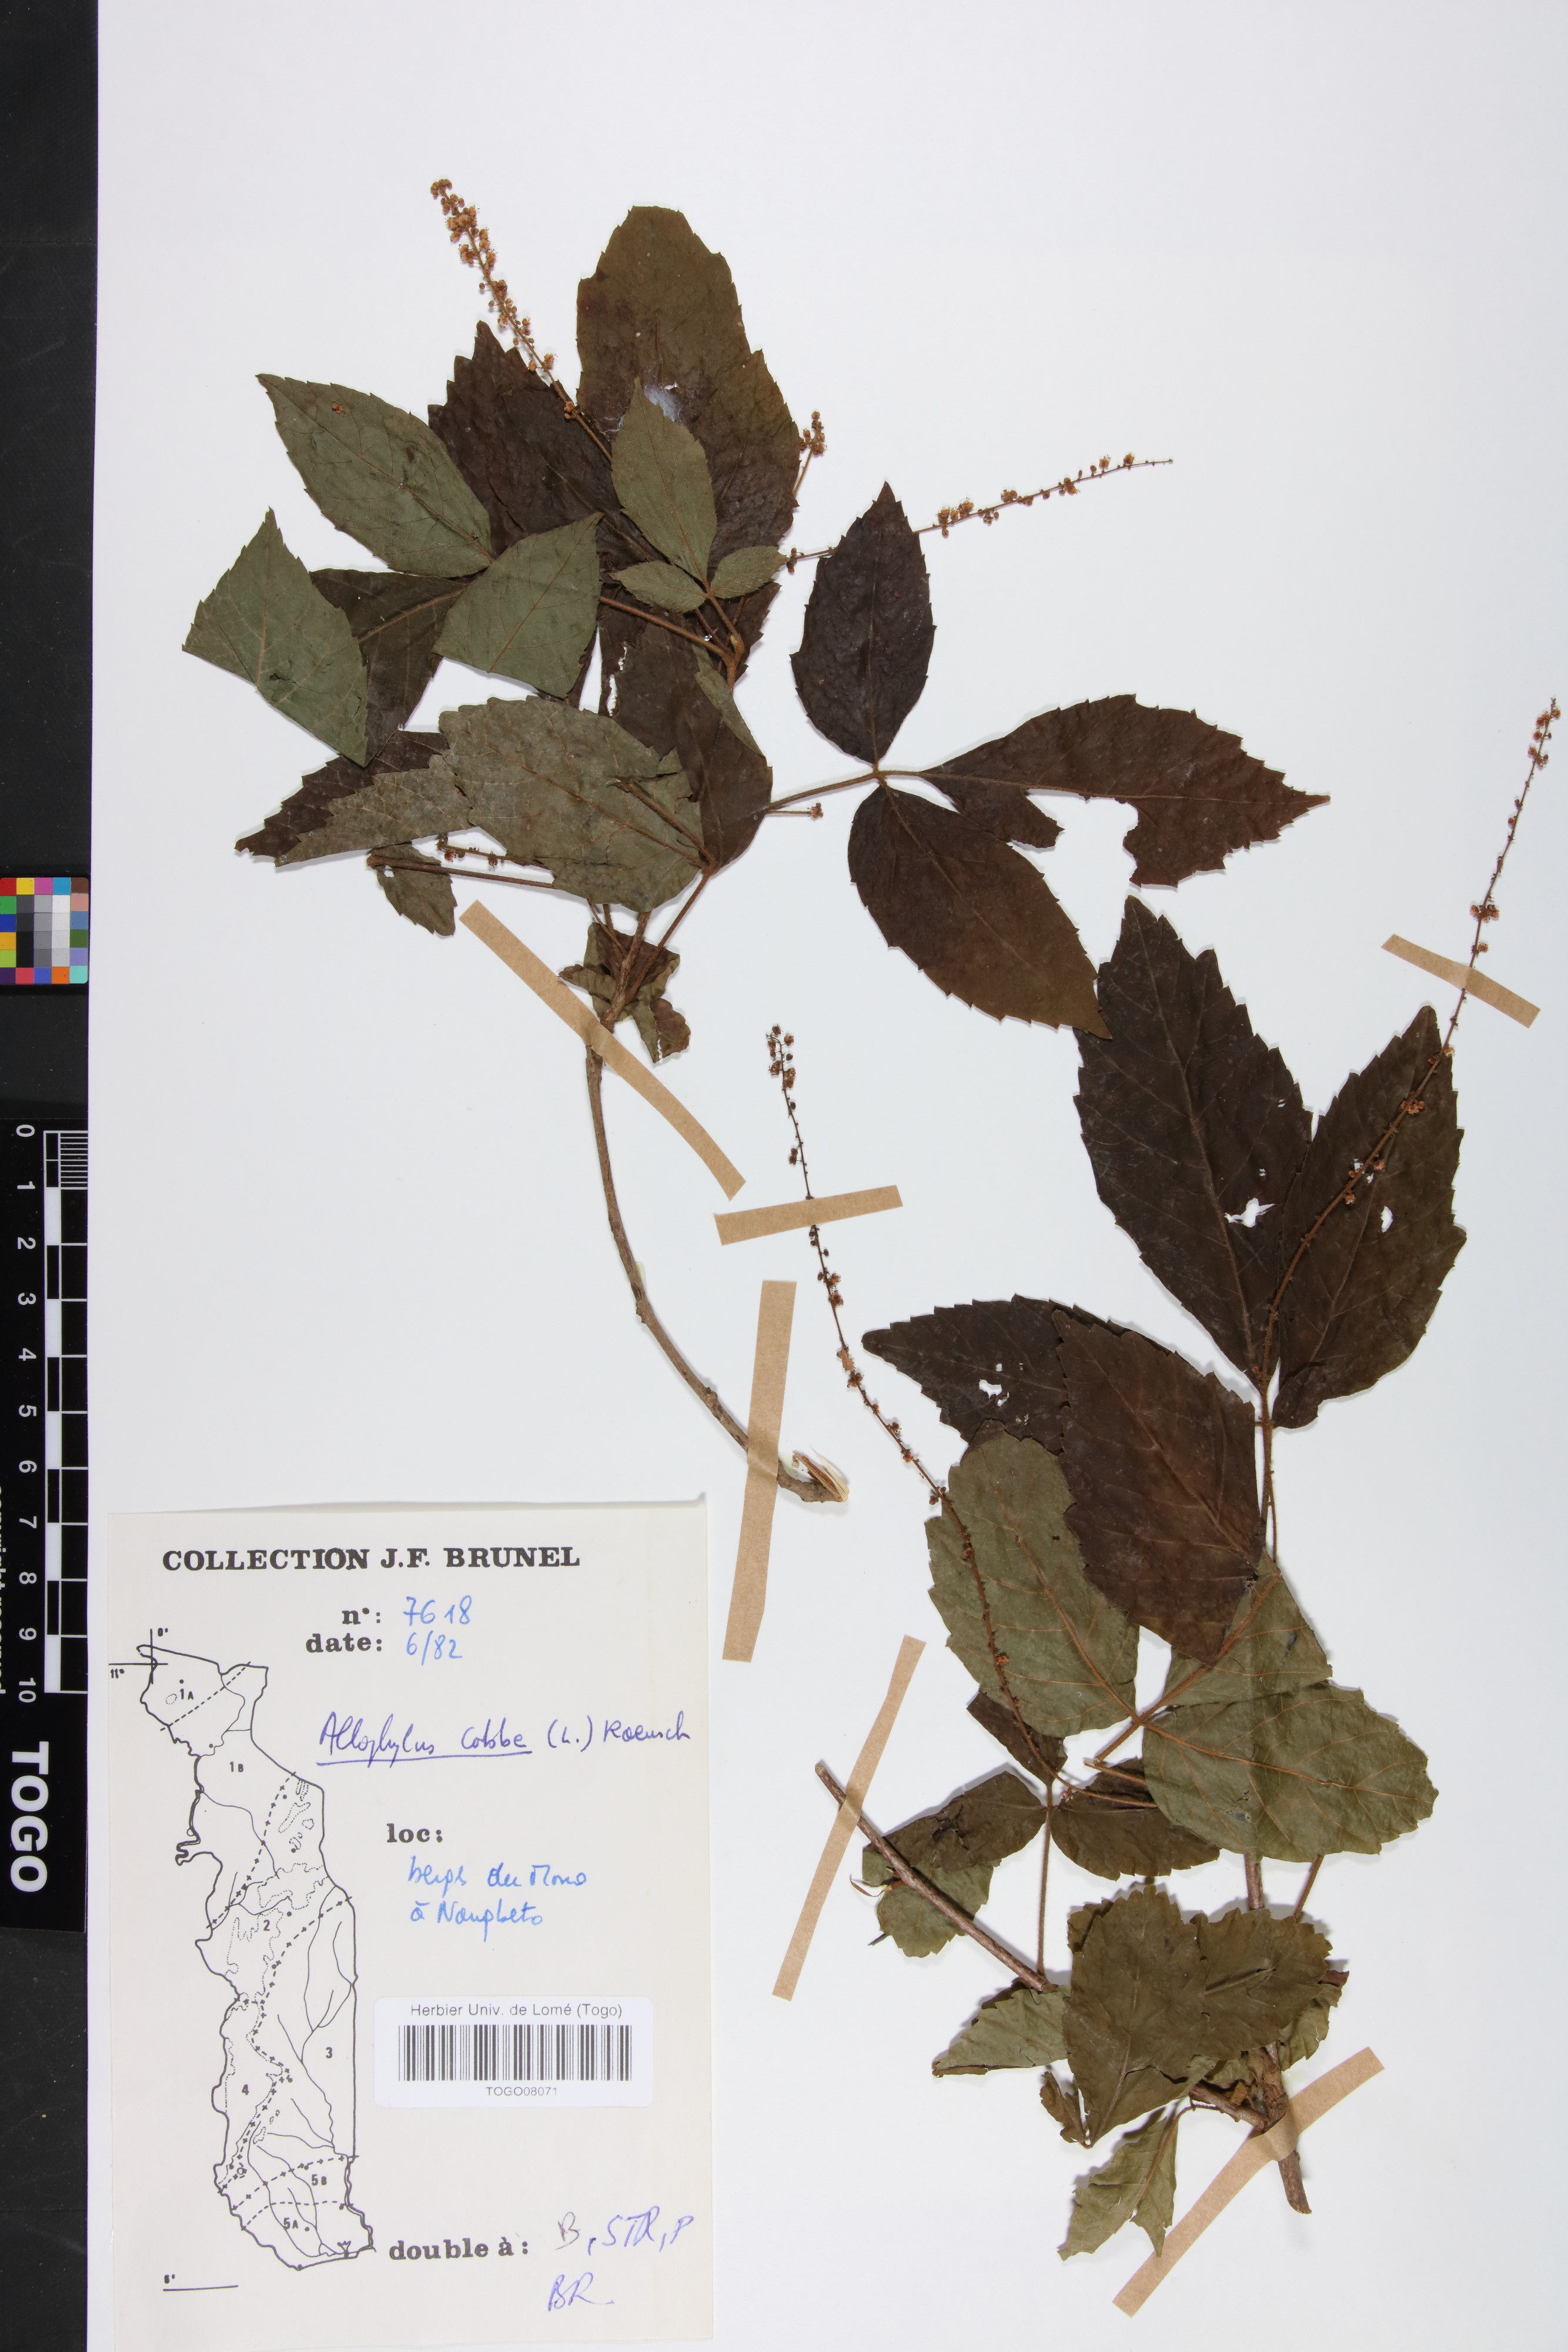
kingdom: Plantae
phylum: Tracheophyta
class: Magnoliopsida
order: Sapindales
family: Sapindaceae
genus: Allophylus
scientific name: Allophylus cobbe
